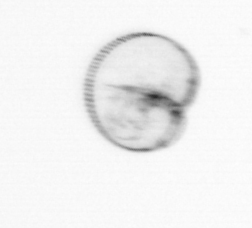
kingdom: Chromista
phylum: Myzozoa
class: Dinophyceae
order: Noctilucales
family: Noctilucaceae
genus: Noctiluca
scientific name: Noctiluca scintillans
